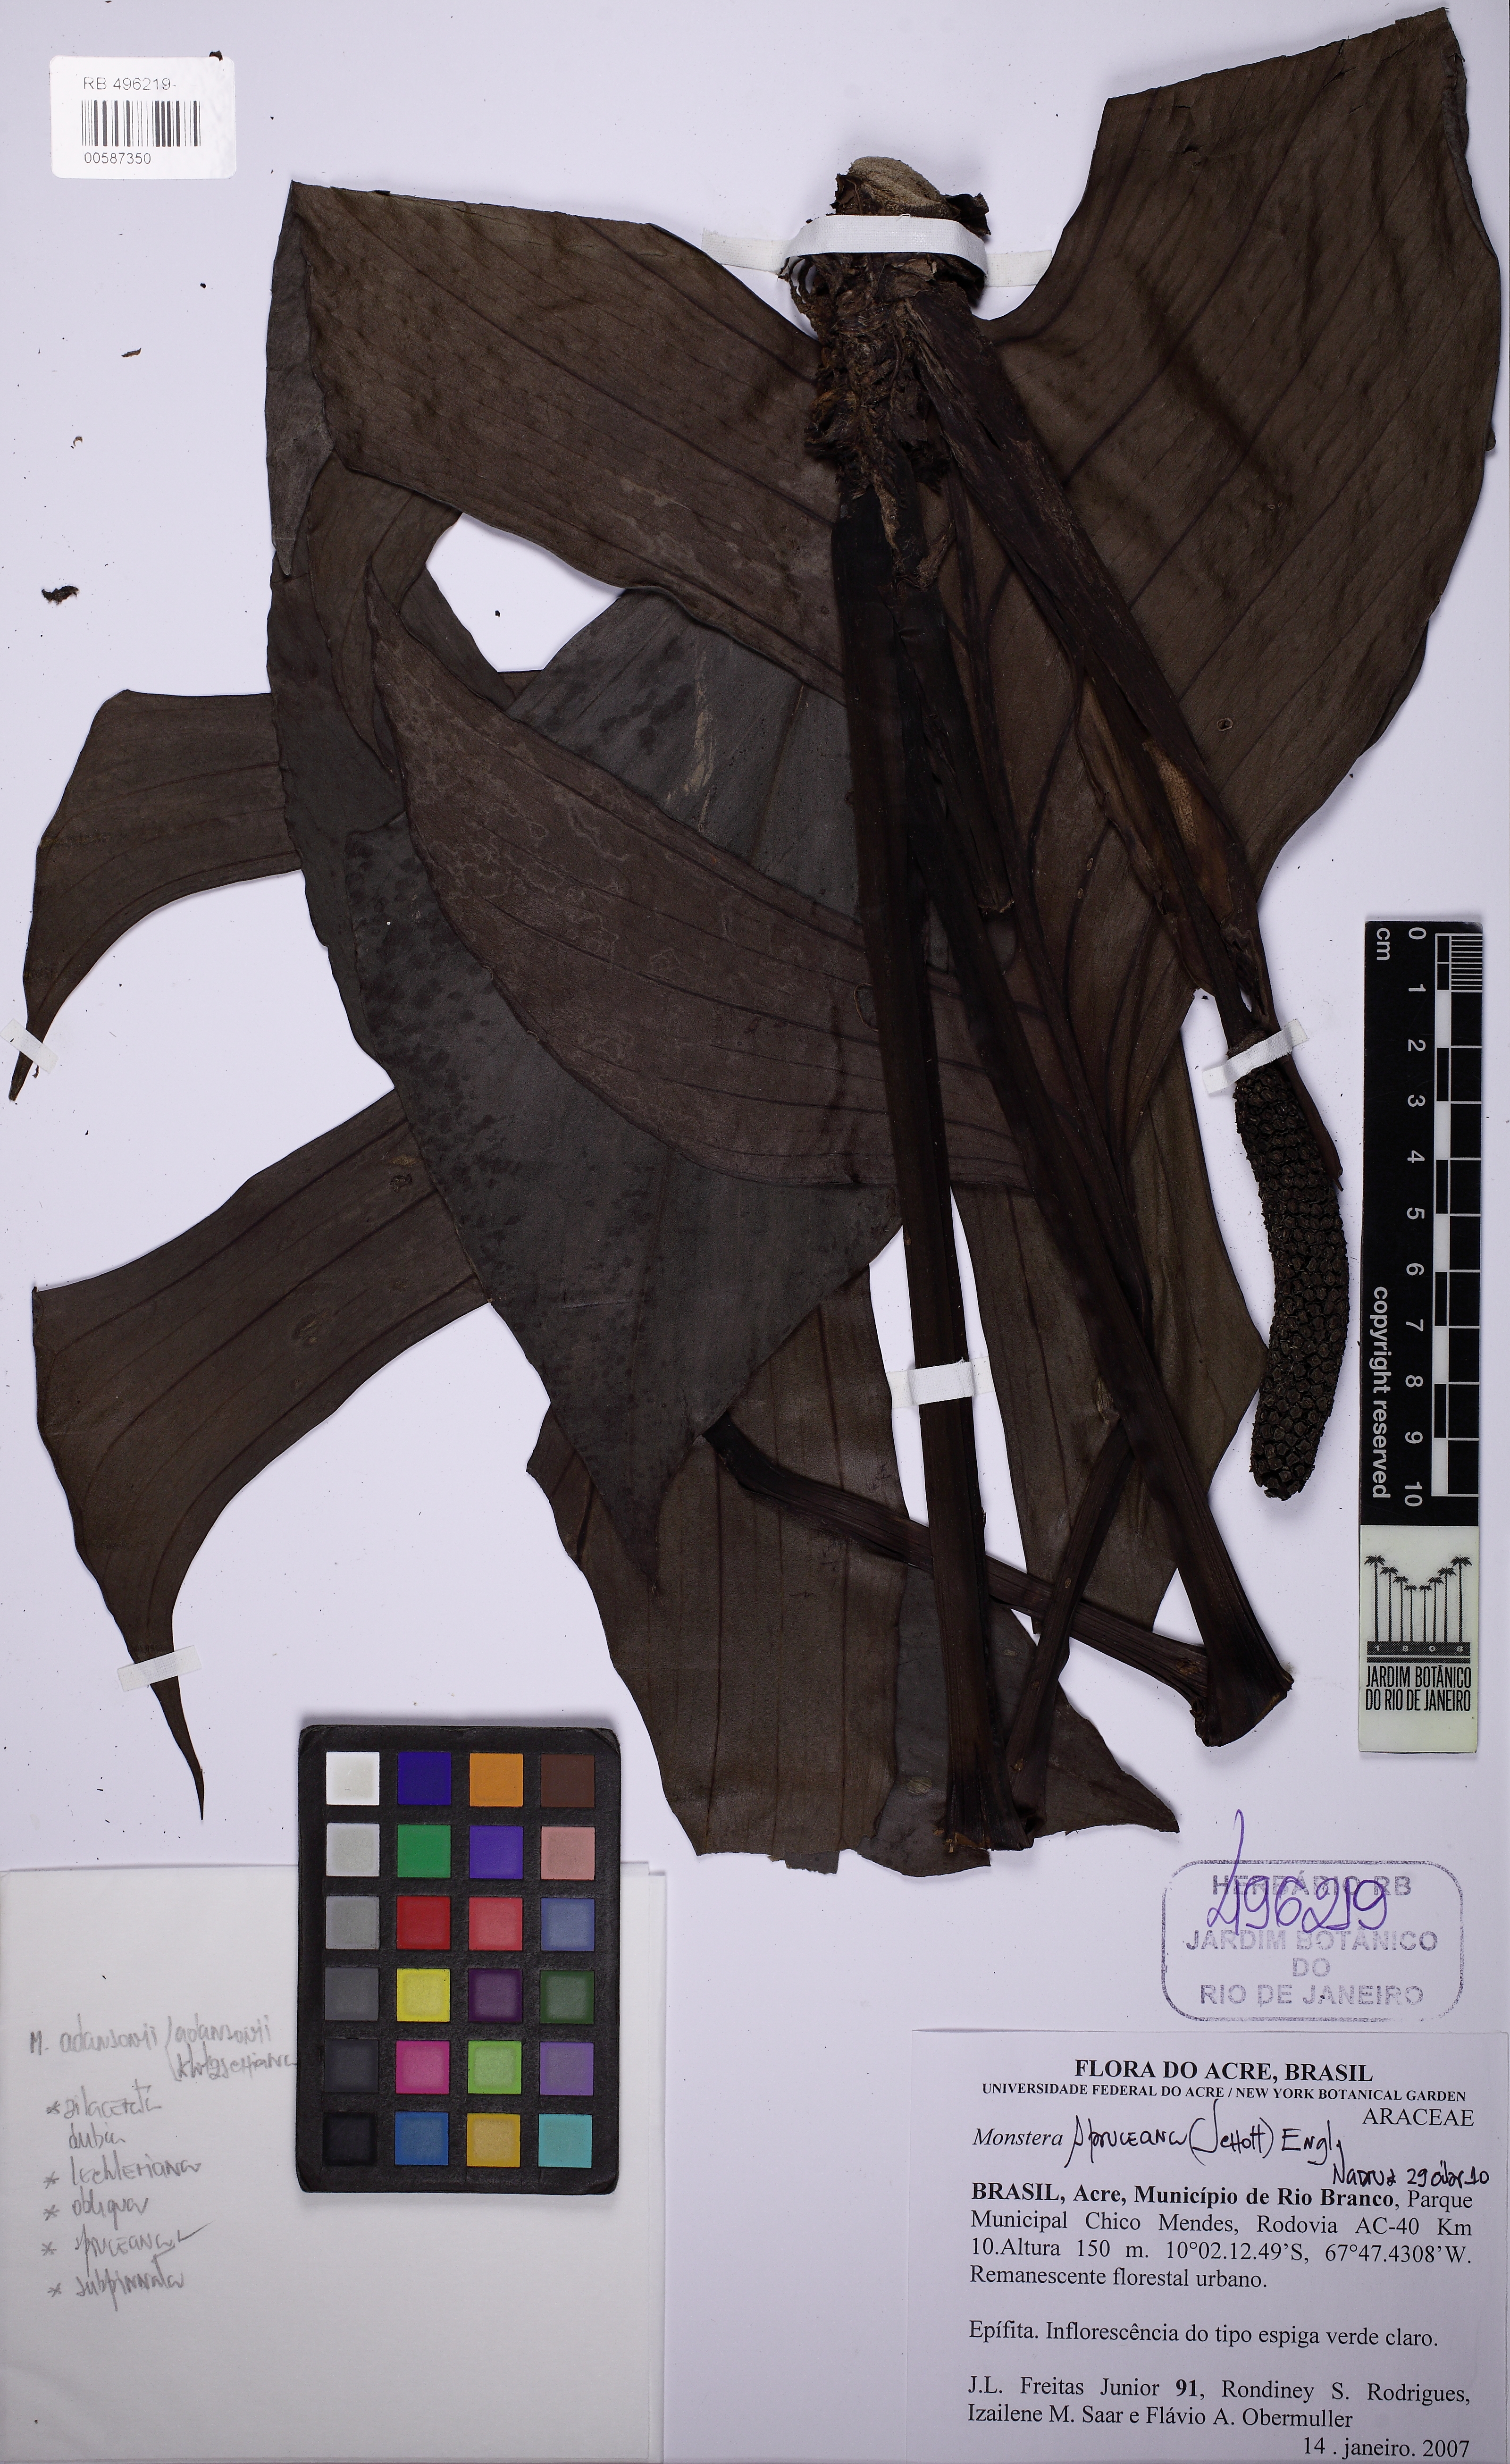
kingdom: Plantae
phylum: Tracheophyta
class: Liliopsida
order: Alismatales
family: Araceae
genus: Monstera
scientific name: Monstera spruceana
